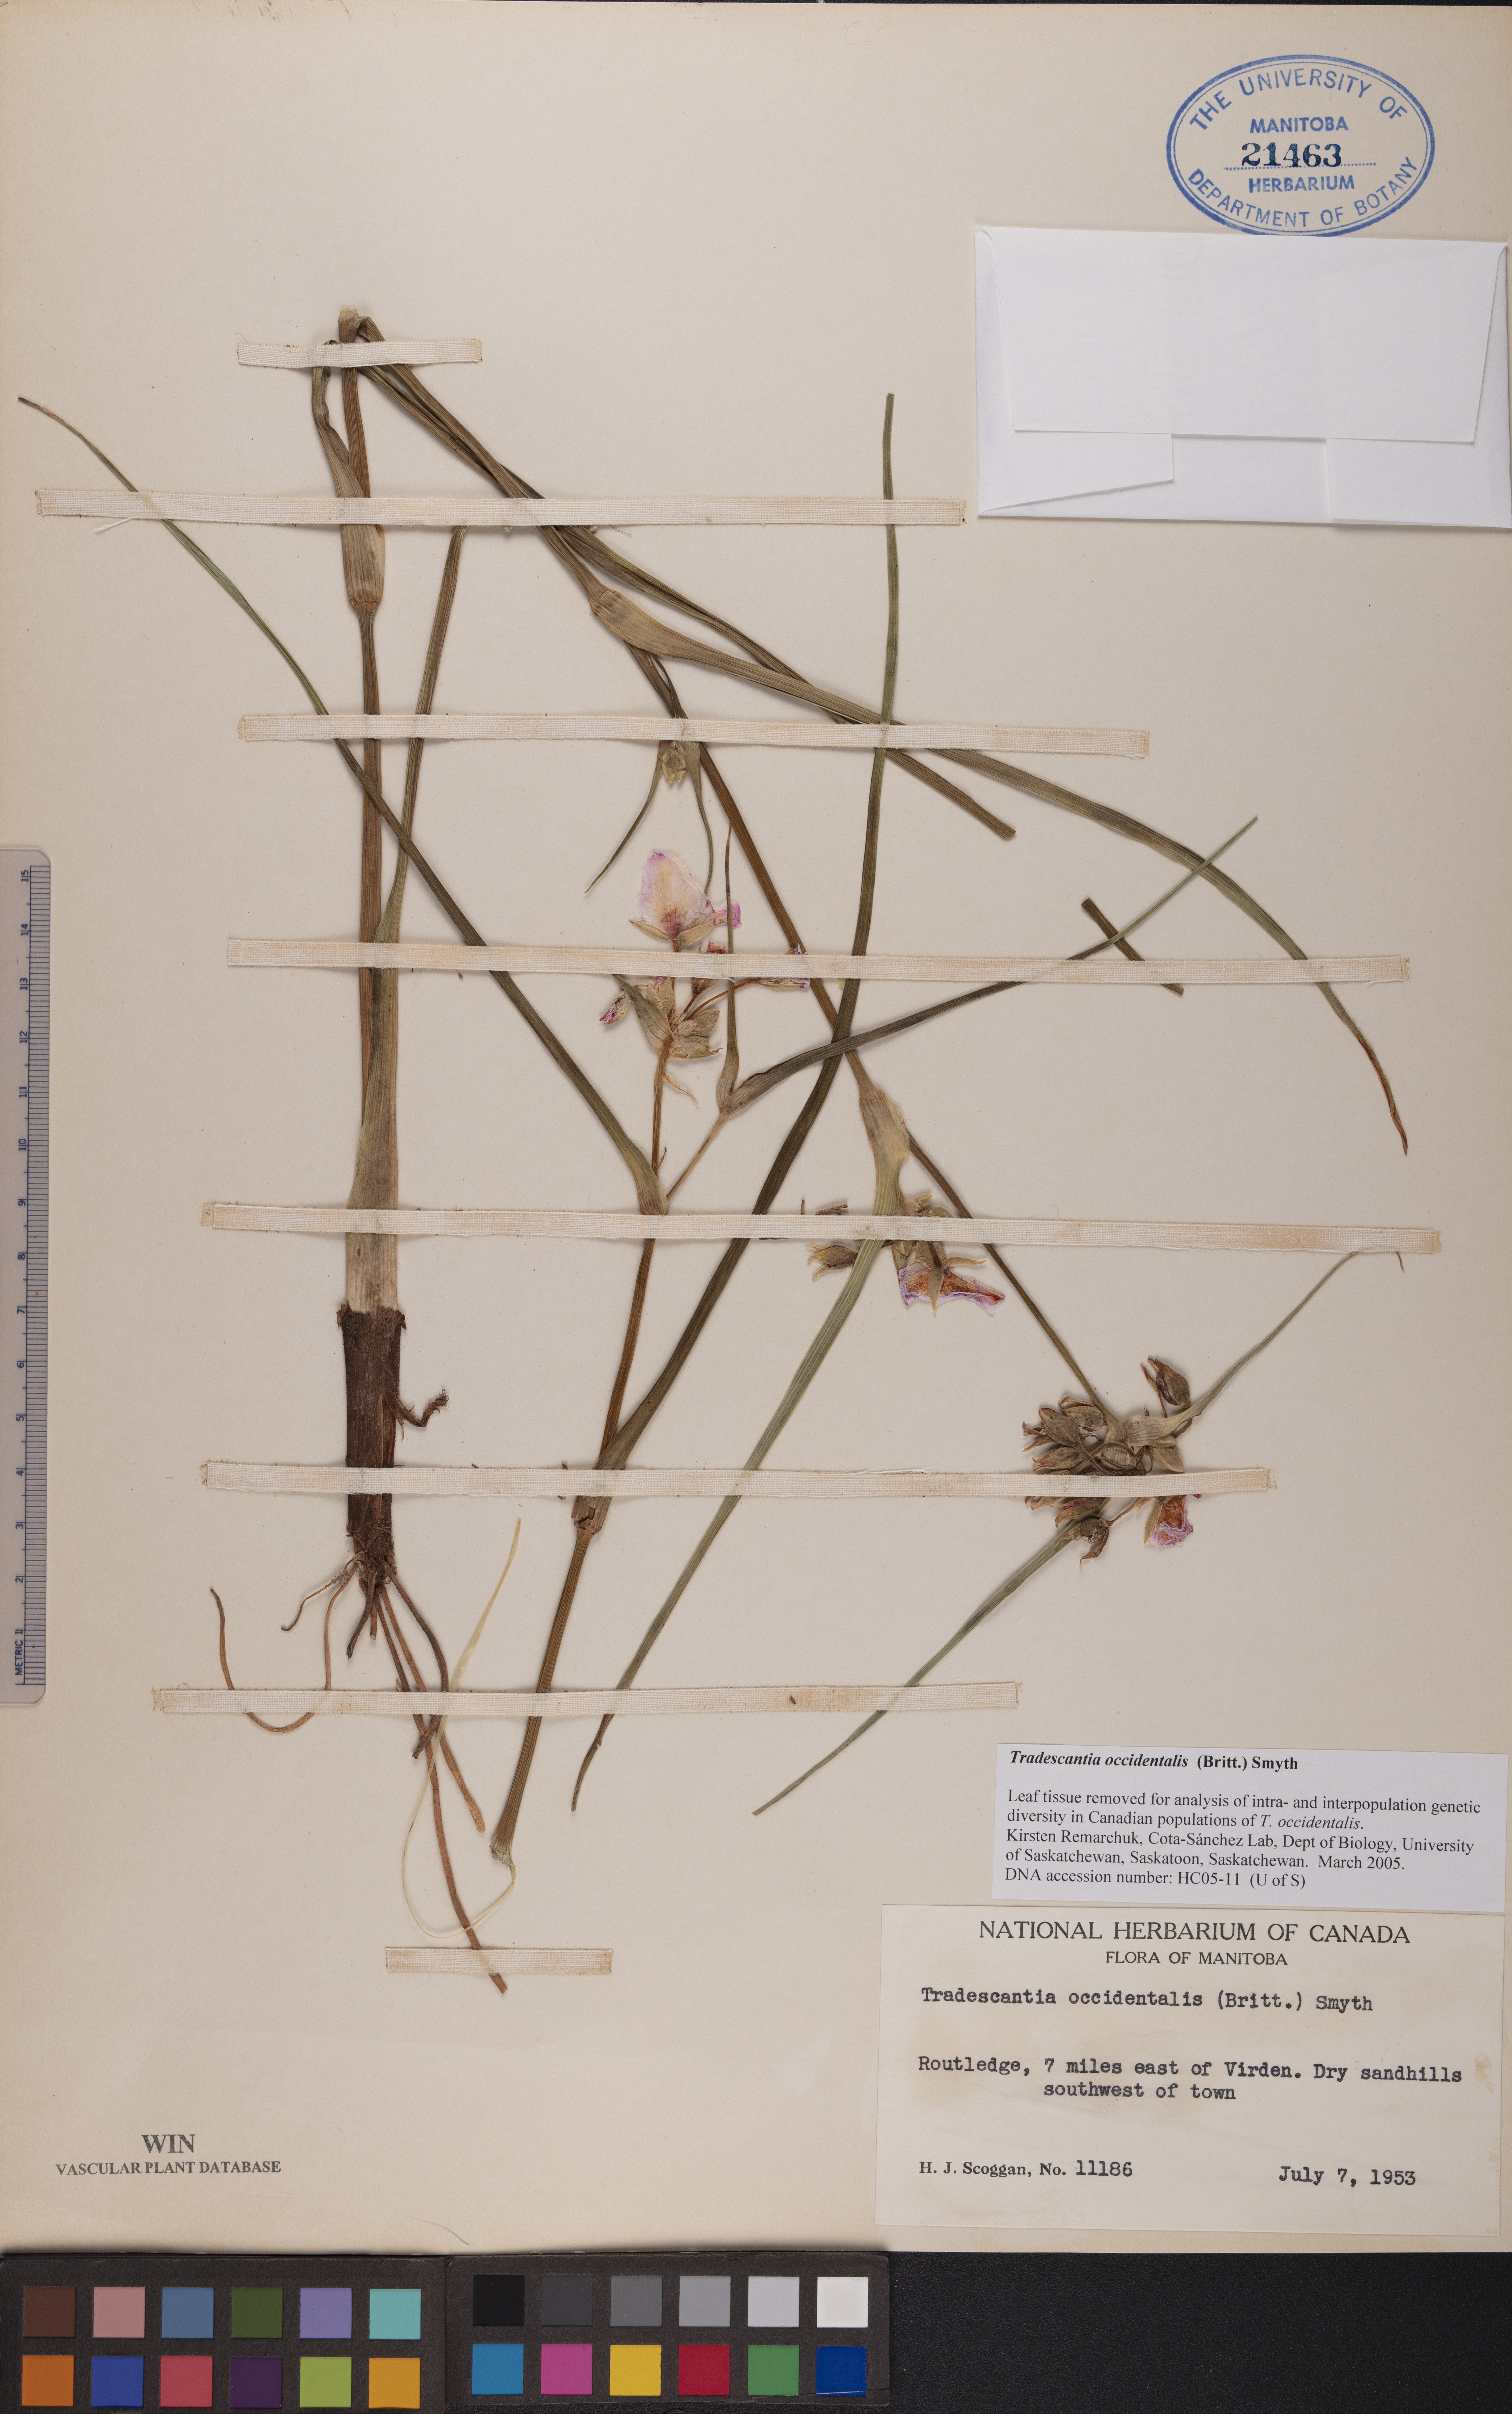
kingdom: Plantae
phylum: Tracheophyta
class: Liliopsida
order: Commelinales
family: Commelinaceae
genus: Tradescantia
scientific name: Tradescantia occidentalis
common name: Prairie spiderwort
